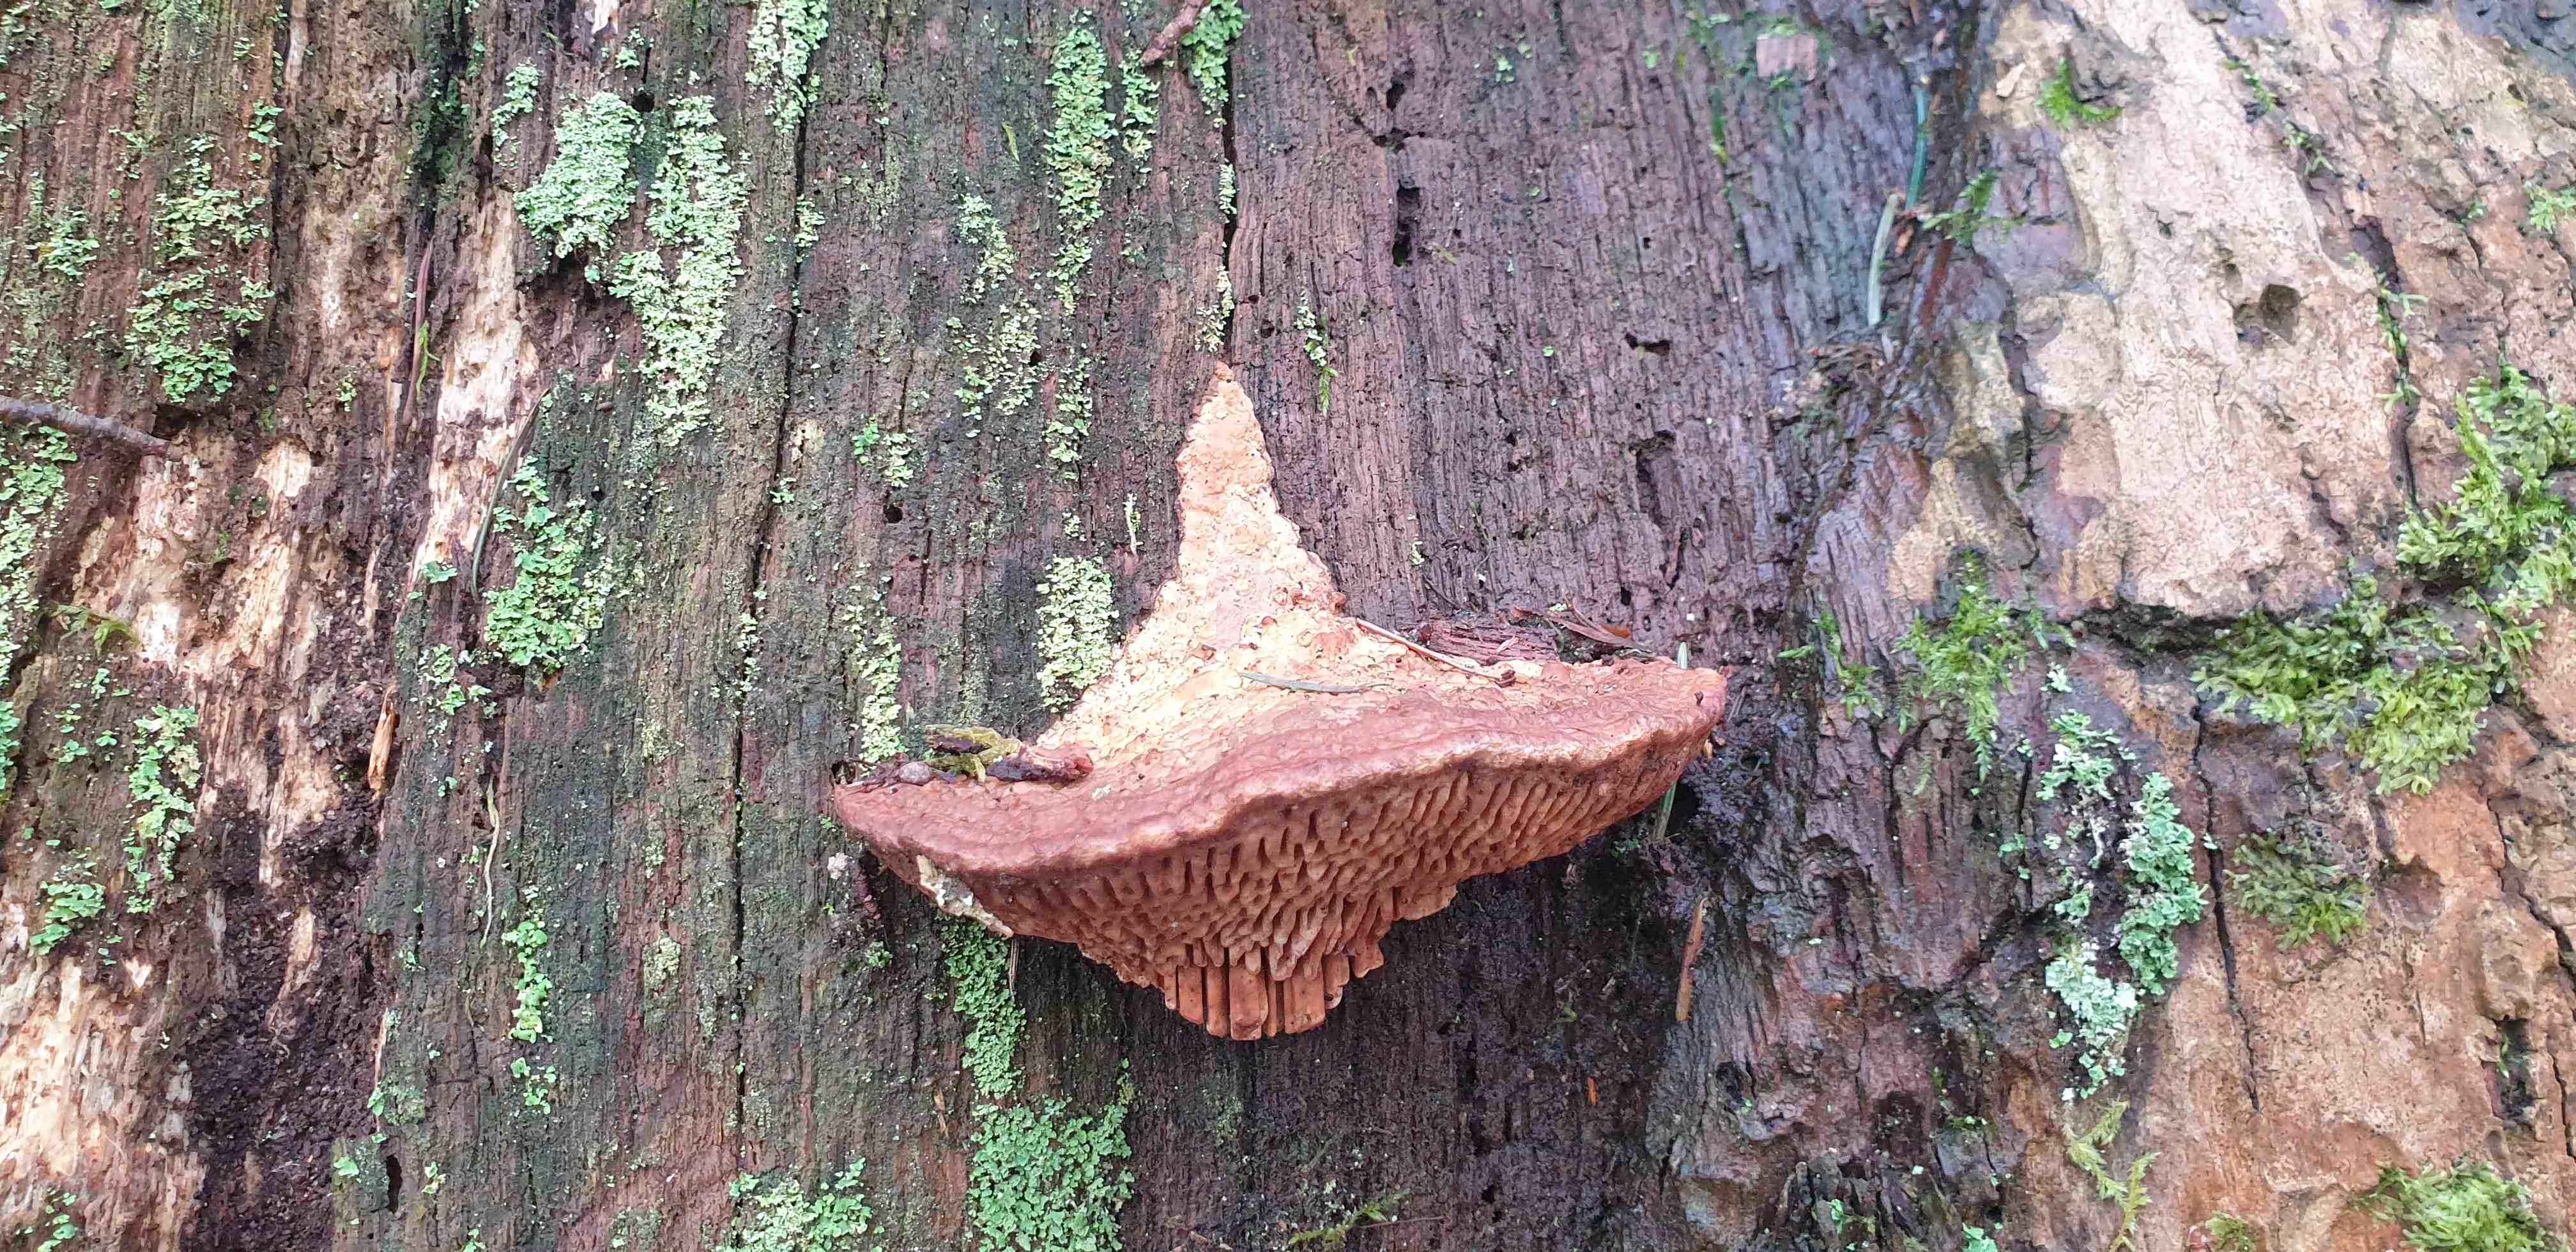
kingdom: Fungi
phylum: Basidiomycota
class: Agaricomycetes
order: Polyporales
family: Fomitopsidaceae
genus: Daedalea
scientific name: Daedalea quercina
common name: ege-labyrintsvamp
